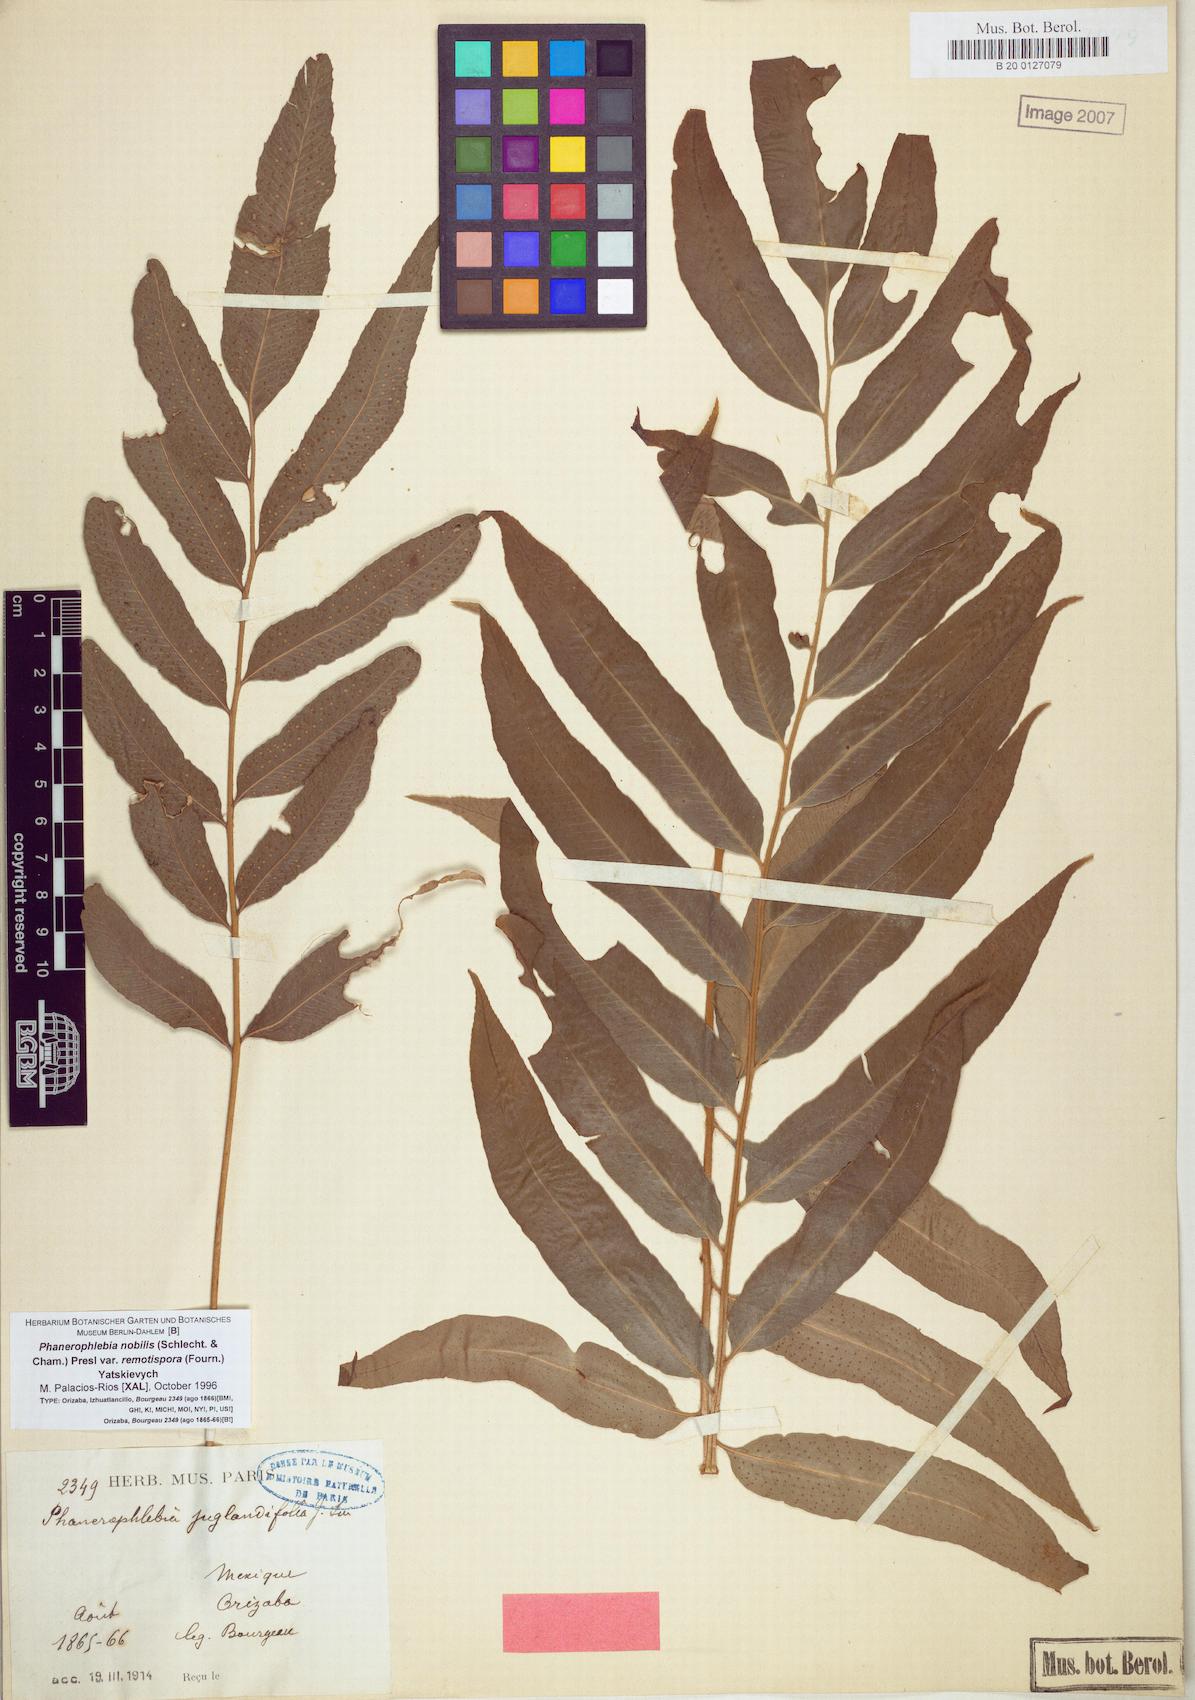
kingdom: Plantae
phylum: Tracheophyta
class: Polypodiopsida
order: Polypodiales
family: Dryopteridaceae
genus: Phanerophlebia
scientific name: Phanerophlebia remotispora
